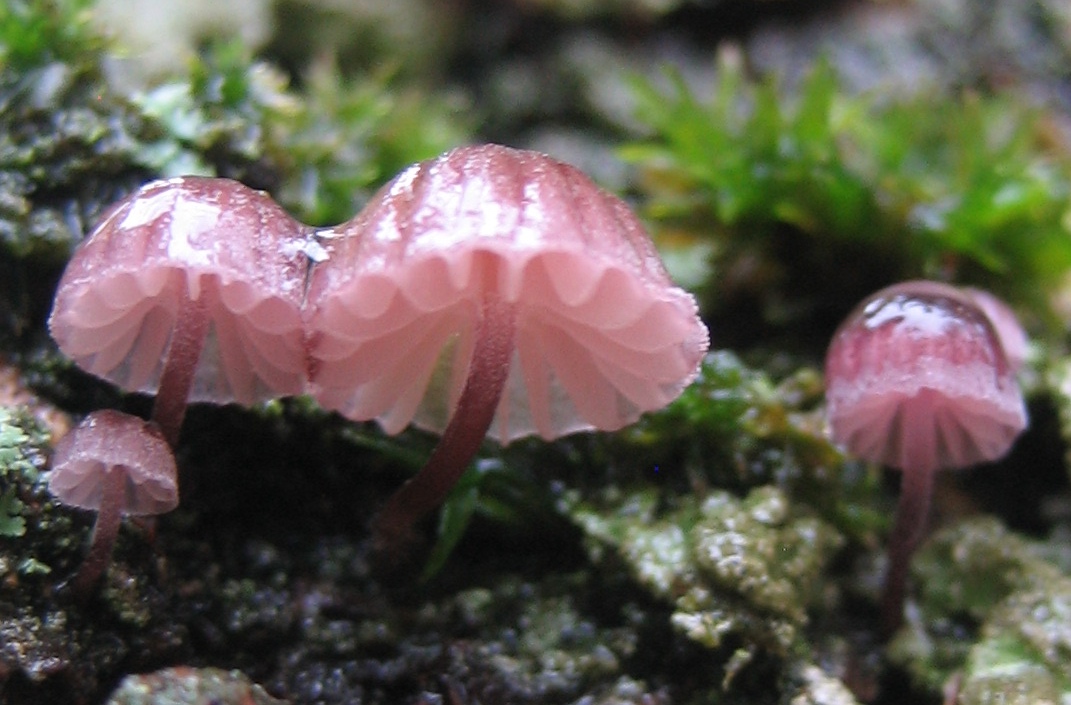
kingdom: Fungi
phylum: Basidiomycota
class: Agaricomycetes
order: Agaricales
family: Mycenaceae
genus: Mycena
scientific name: Mycena meliigena
